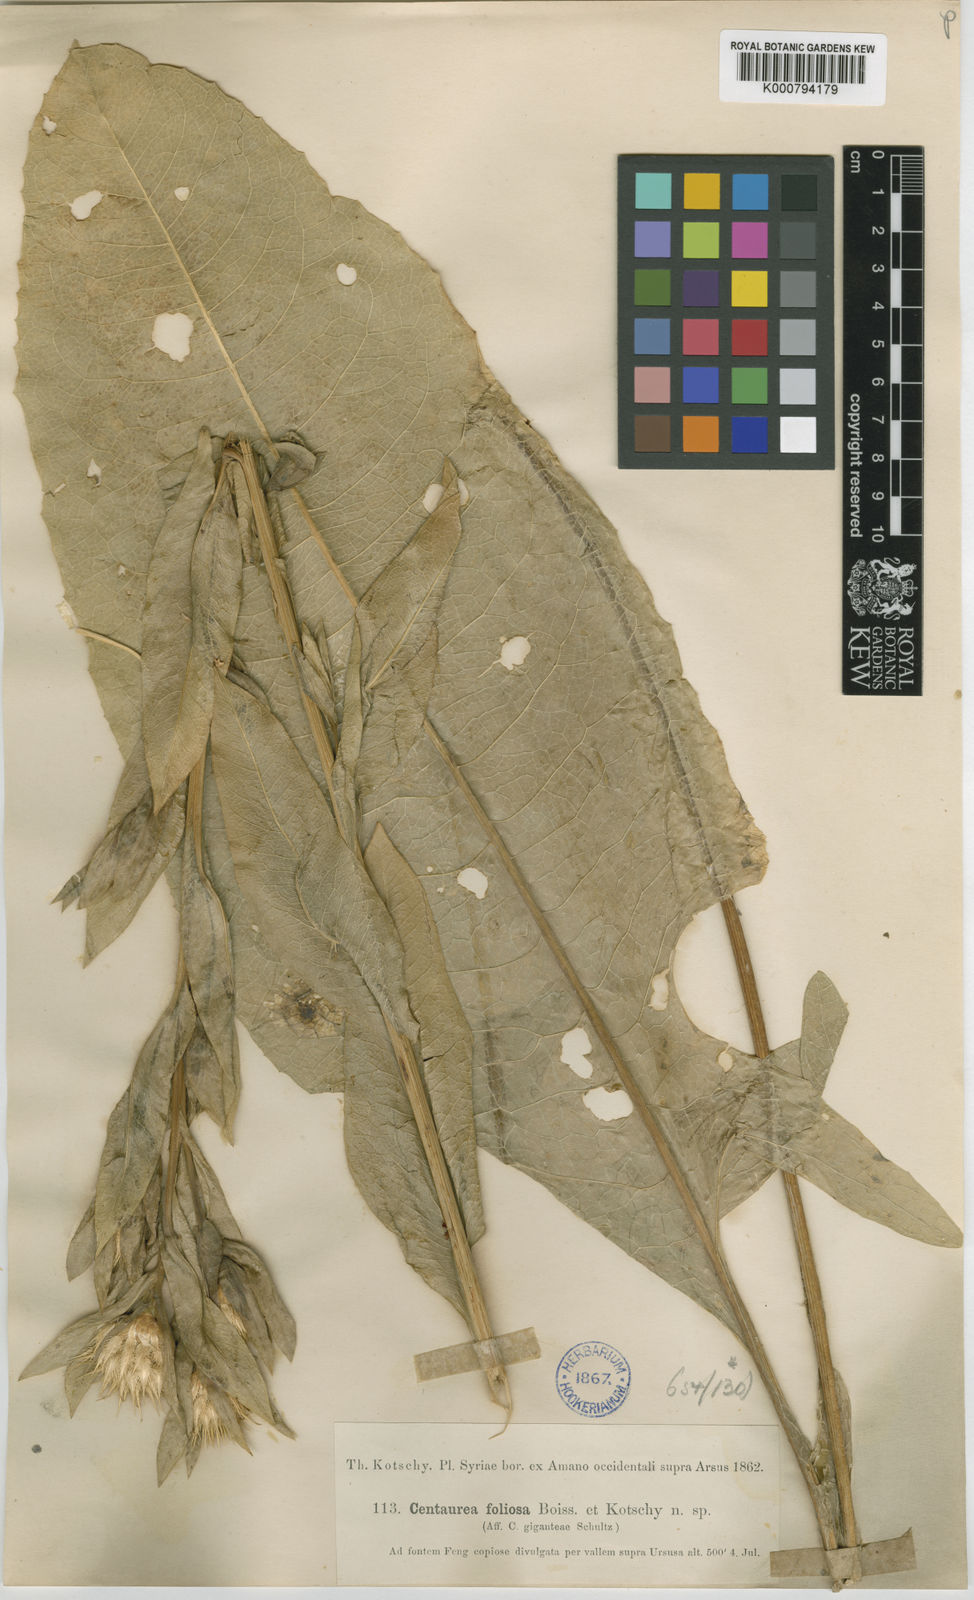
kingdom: Plantae
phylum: Tracheophyta
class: Magnoliopsida
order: Asterales
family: Asteraceae
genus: Centaurea
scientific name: Centaurea zaferii
